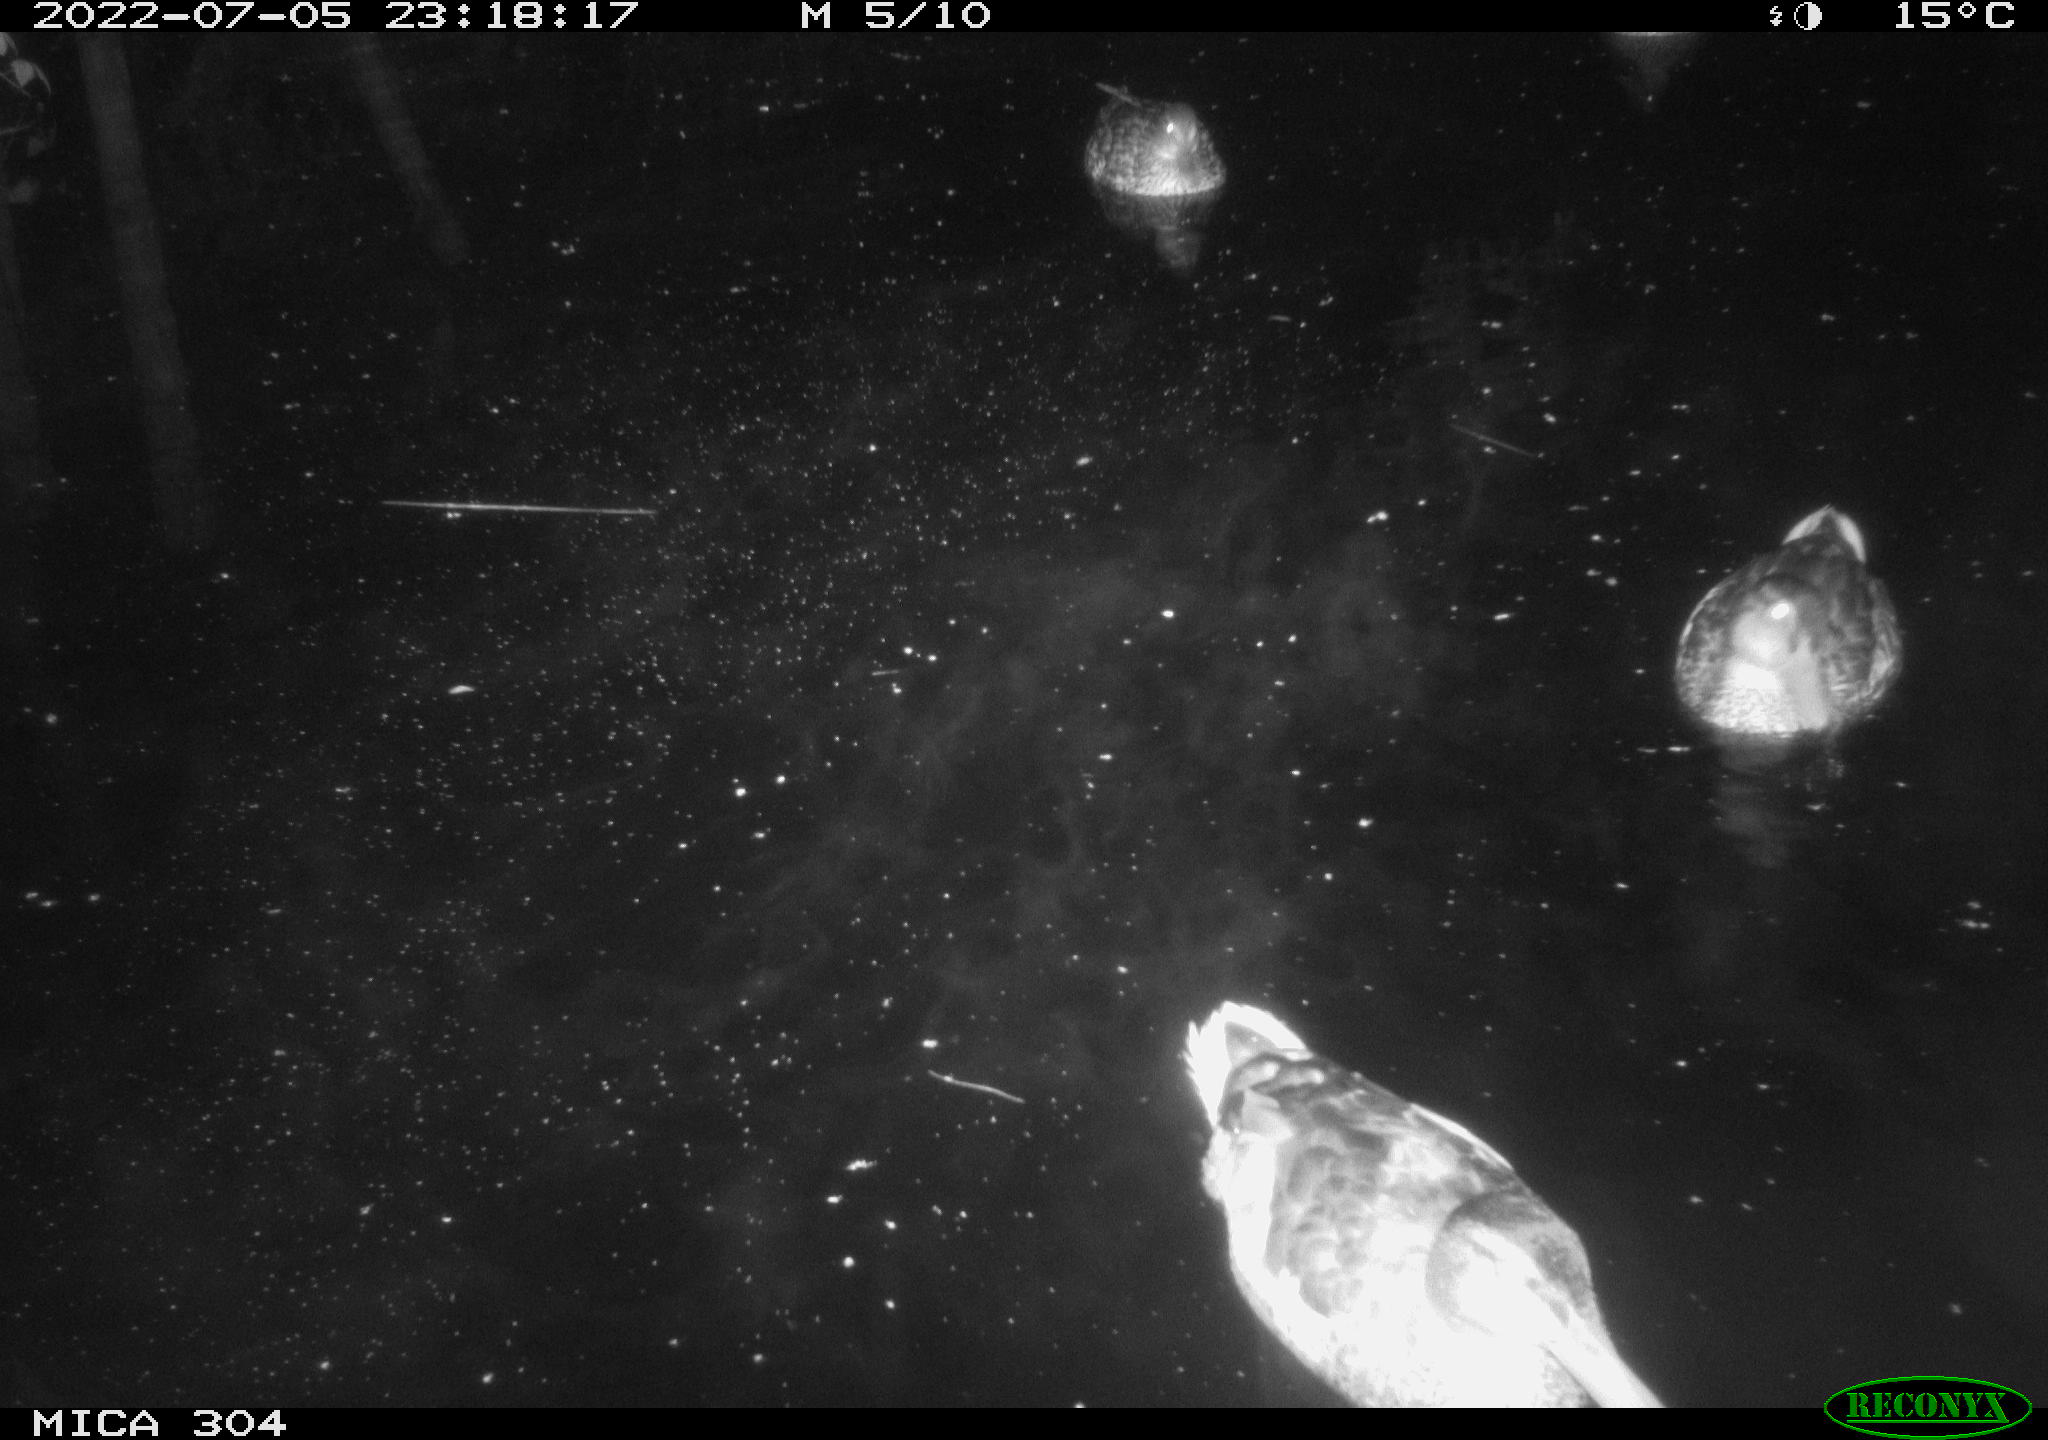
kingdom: Animalia
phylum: Chordata
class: Aves
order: Anseriformes
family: Anatidae
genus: Mareca
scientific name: Mareca strepera
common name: Gadwall
